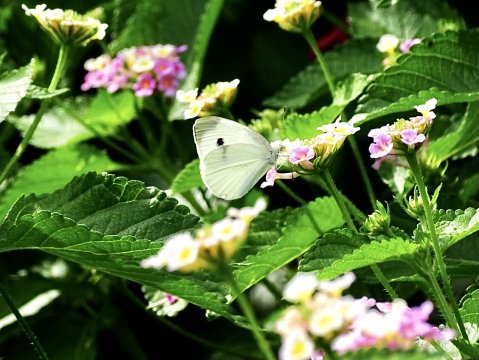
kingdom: Animalia
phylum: Arthropoda
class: Insecta
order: Lepidoptera
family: Pieridae
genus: Pieris
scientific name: Pieris rapae
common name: Cabbage White
